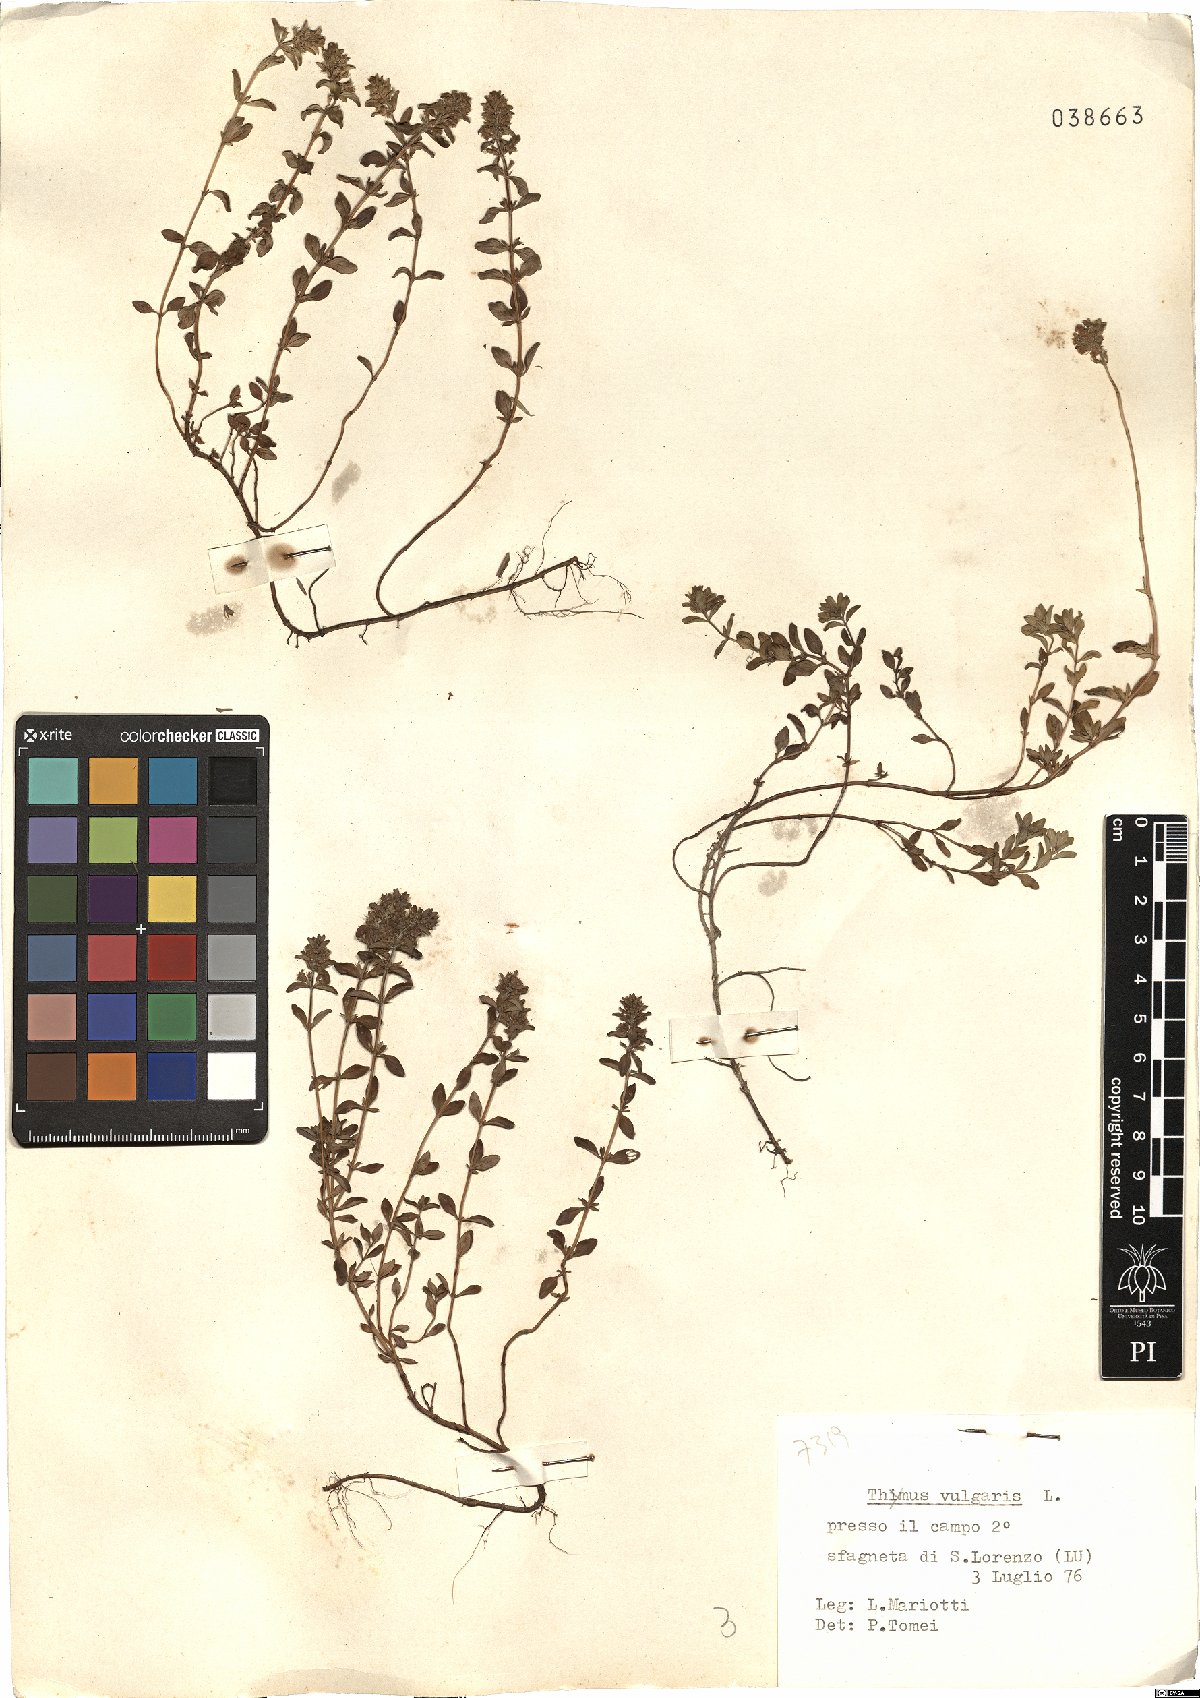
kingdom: Plantae
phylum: Tracheophyta
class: Magnoliopsida
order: Lamiales
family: Lamiaceae
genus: Thymus
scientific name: Thymus vulgaris
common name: Garden thyme
